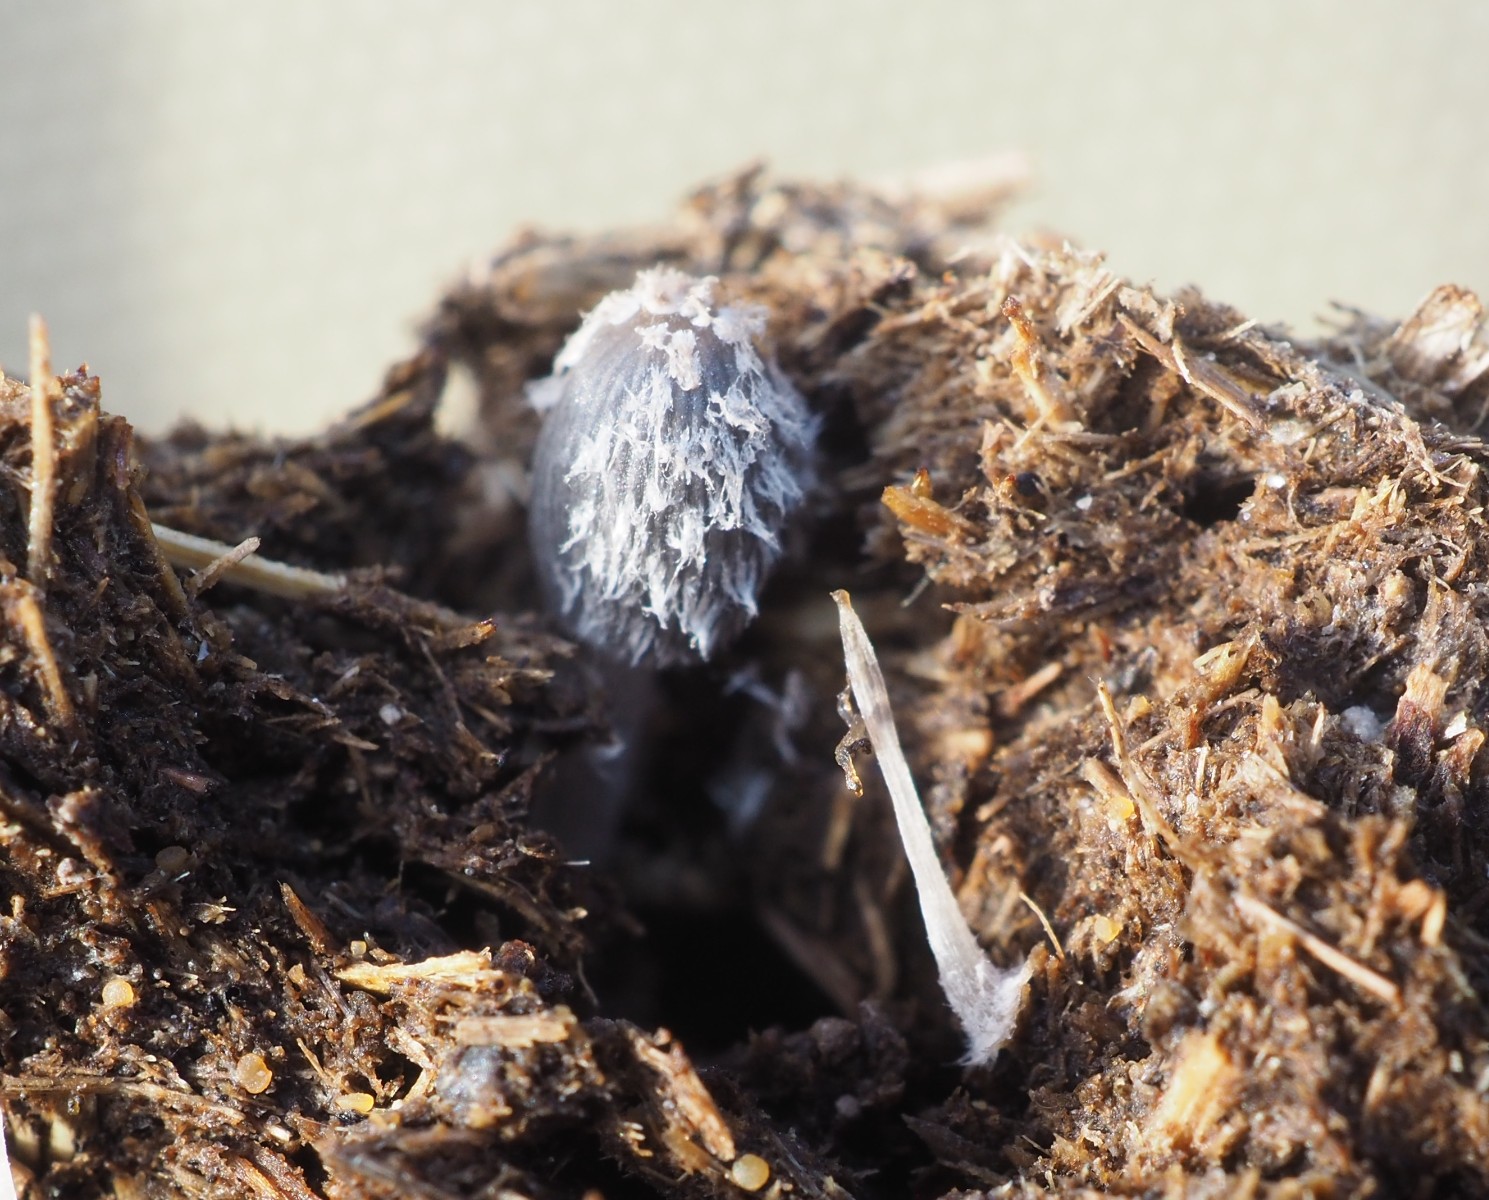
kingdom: Fungi
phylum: Basidiomycota
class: Agaricomycetes
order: Agaricales
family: Psathyrellaceae
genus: Coprinopsis
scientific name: Coprinopsis pseudoradiata
